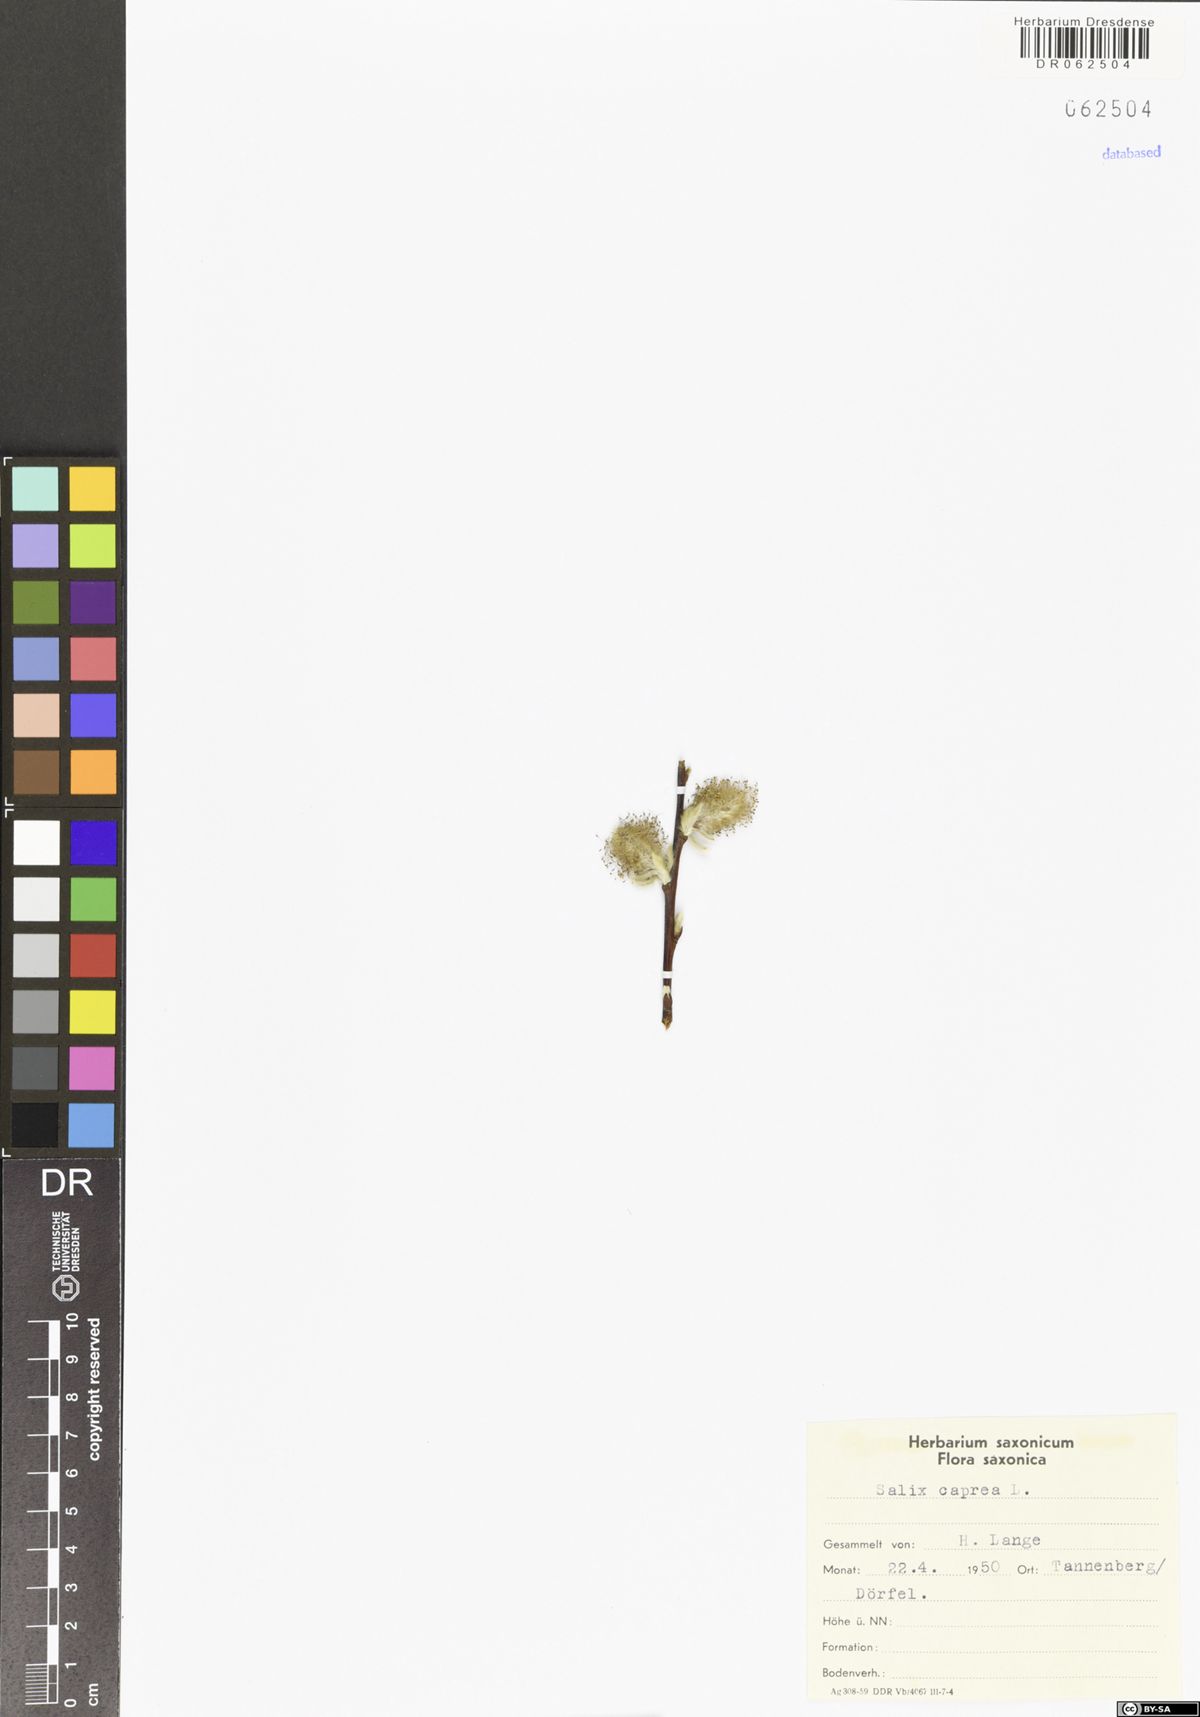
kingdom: Plantae
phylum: Tracheophyta
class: Magnoliopsida
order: Malpighiales
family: Salicaceae
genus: Salix
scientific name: Salix caprea
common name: Goat willow
